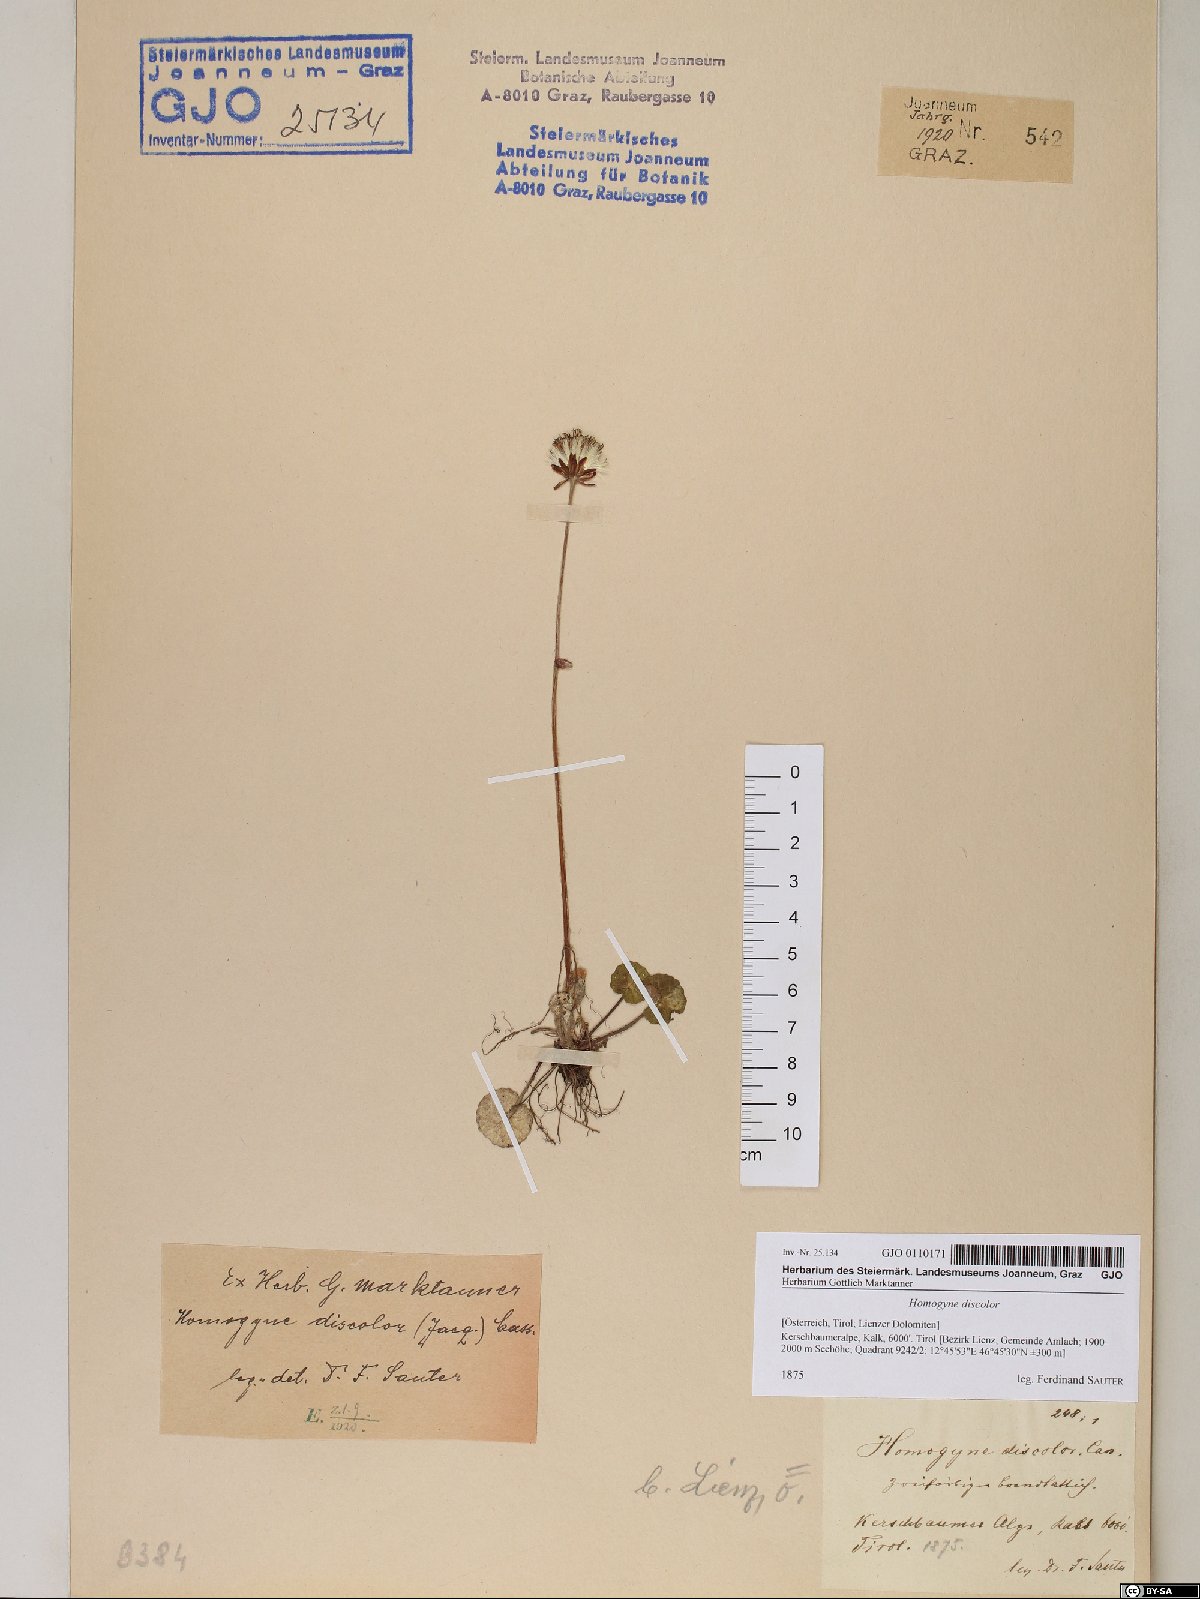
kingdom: Plantae
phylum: Tracheophyta
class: Magnoliopsida
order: Asterales
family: Asteraceae
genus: Homogyne
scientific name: Homogyne discolor
